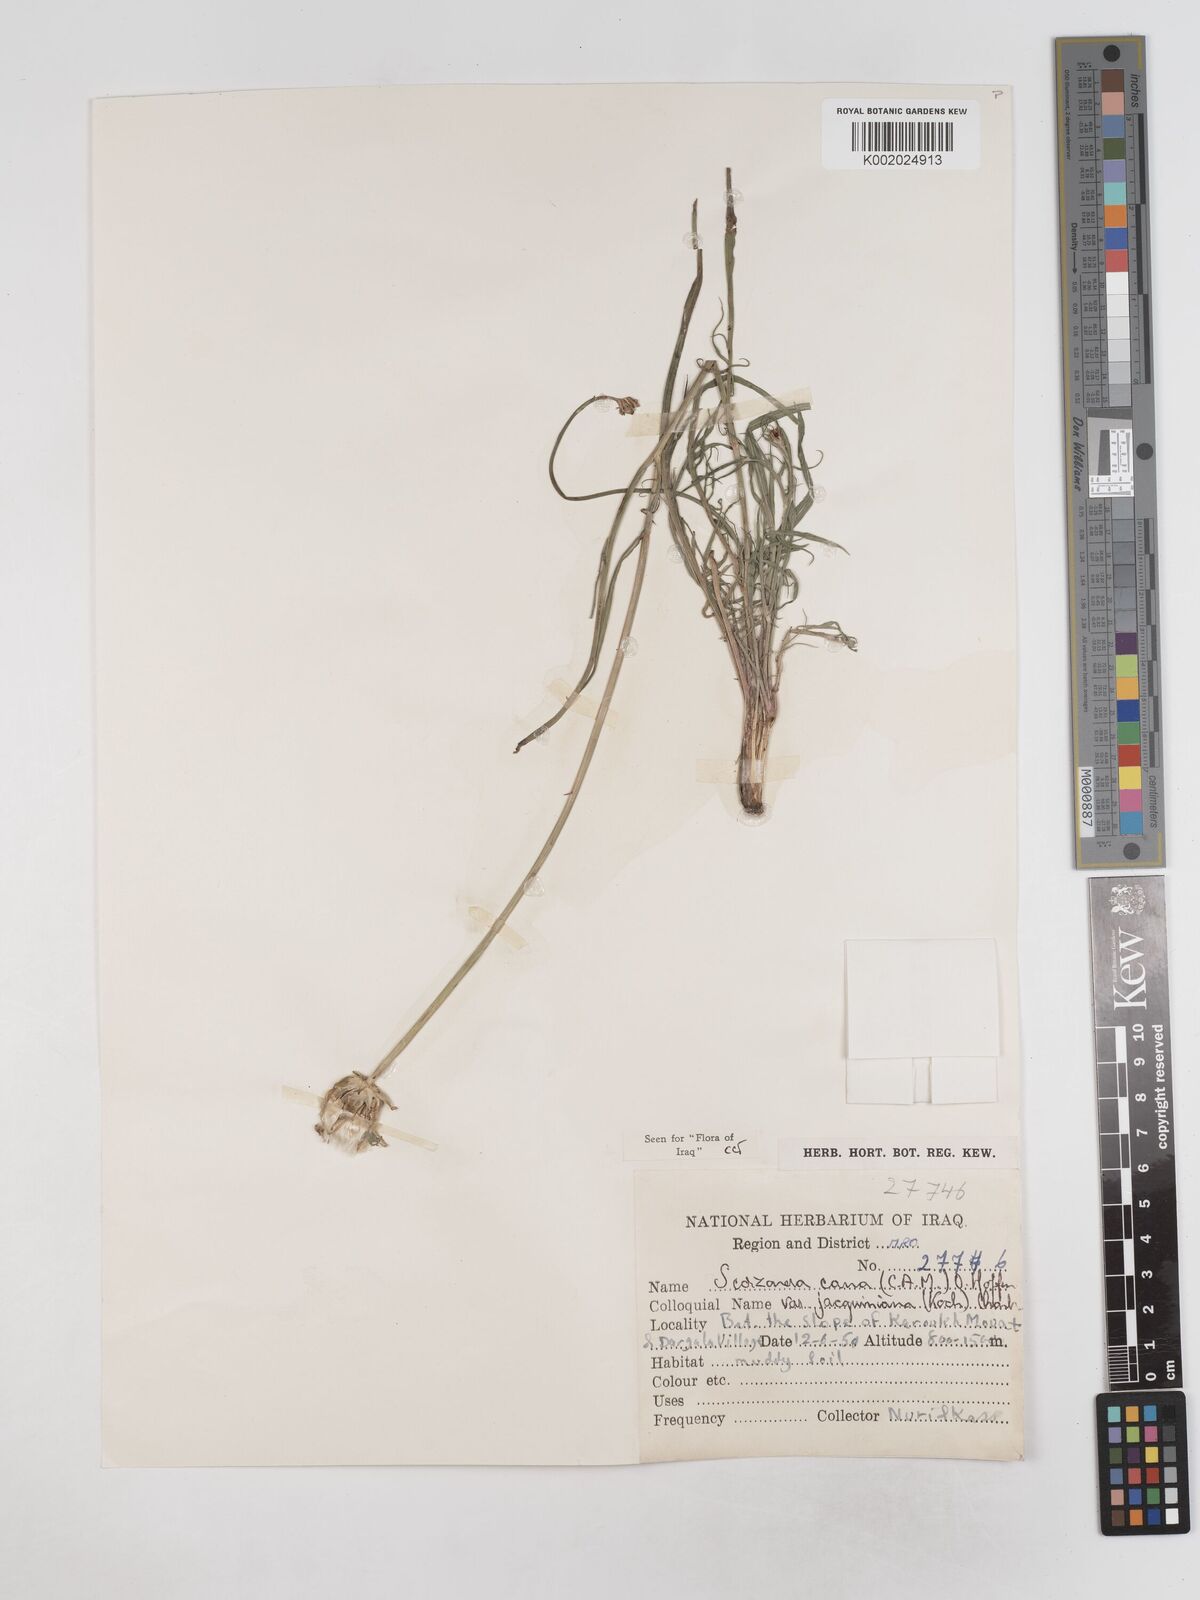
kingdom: Plantae
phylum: Tracheophyta
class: Magnoliopsida
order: Asterales
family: Asteraceae
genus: Scorzonera
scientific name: Scorzonera cana
